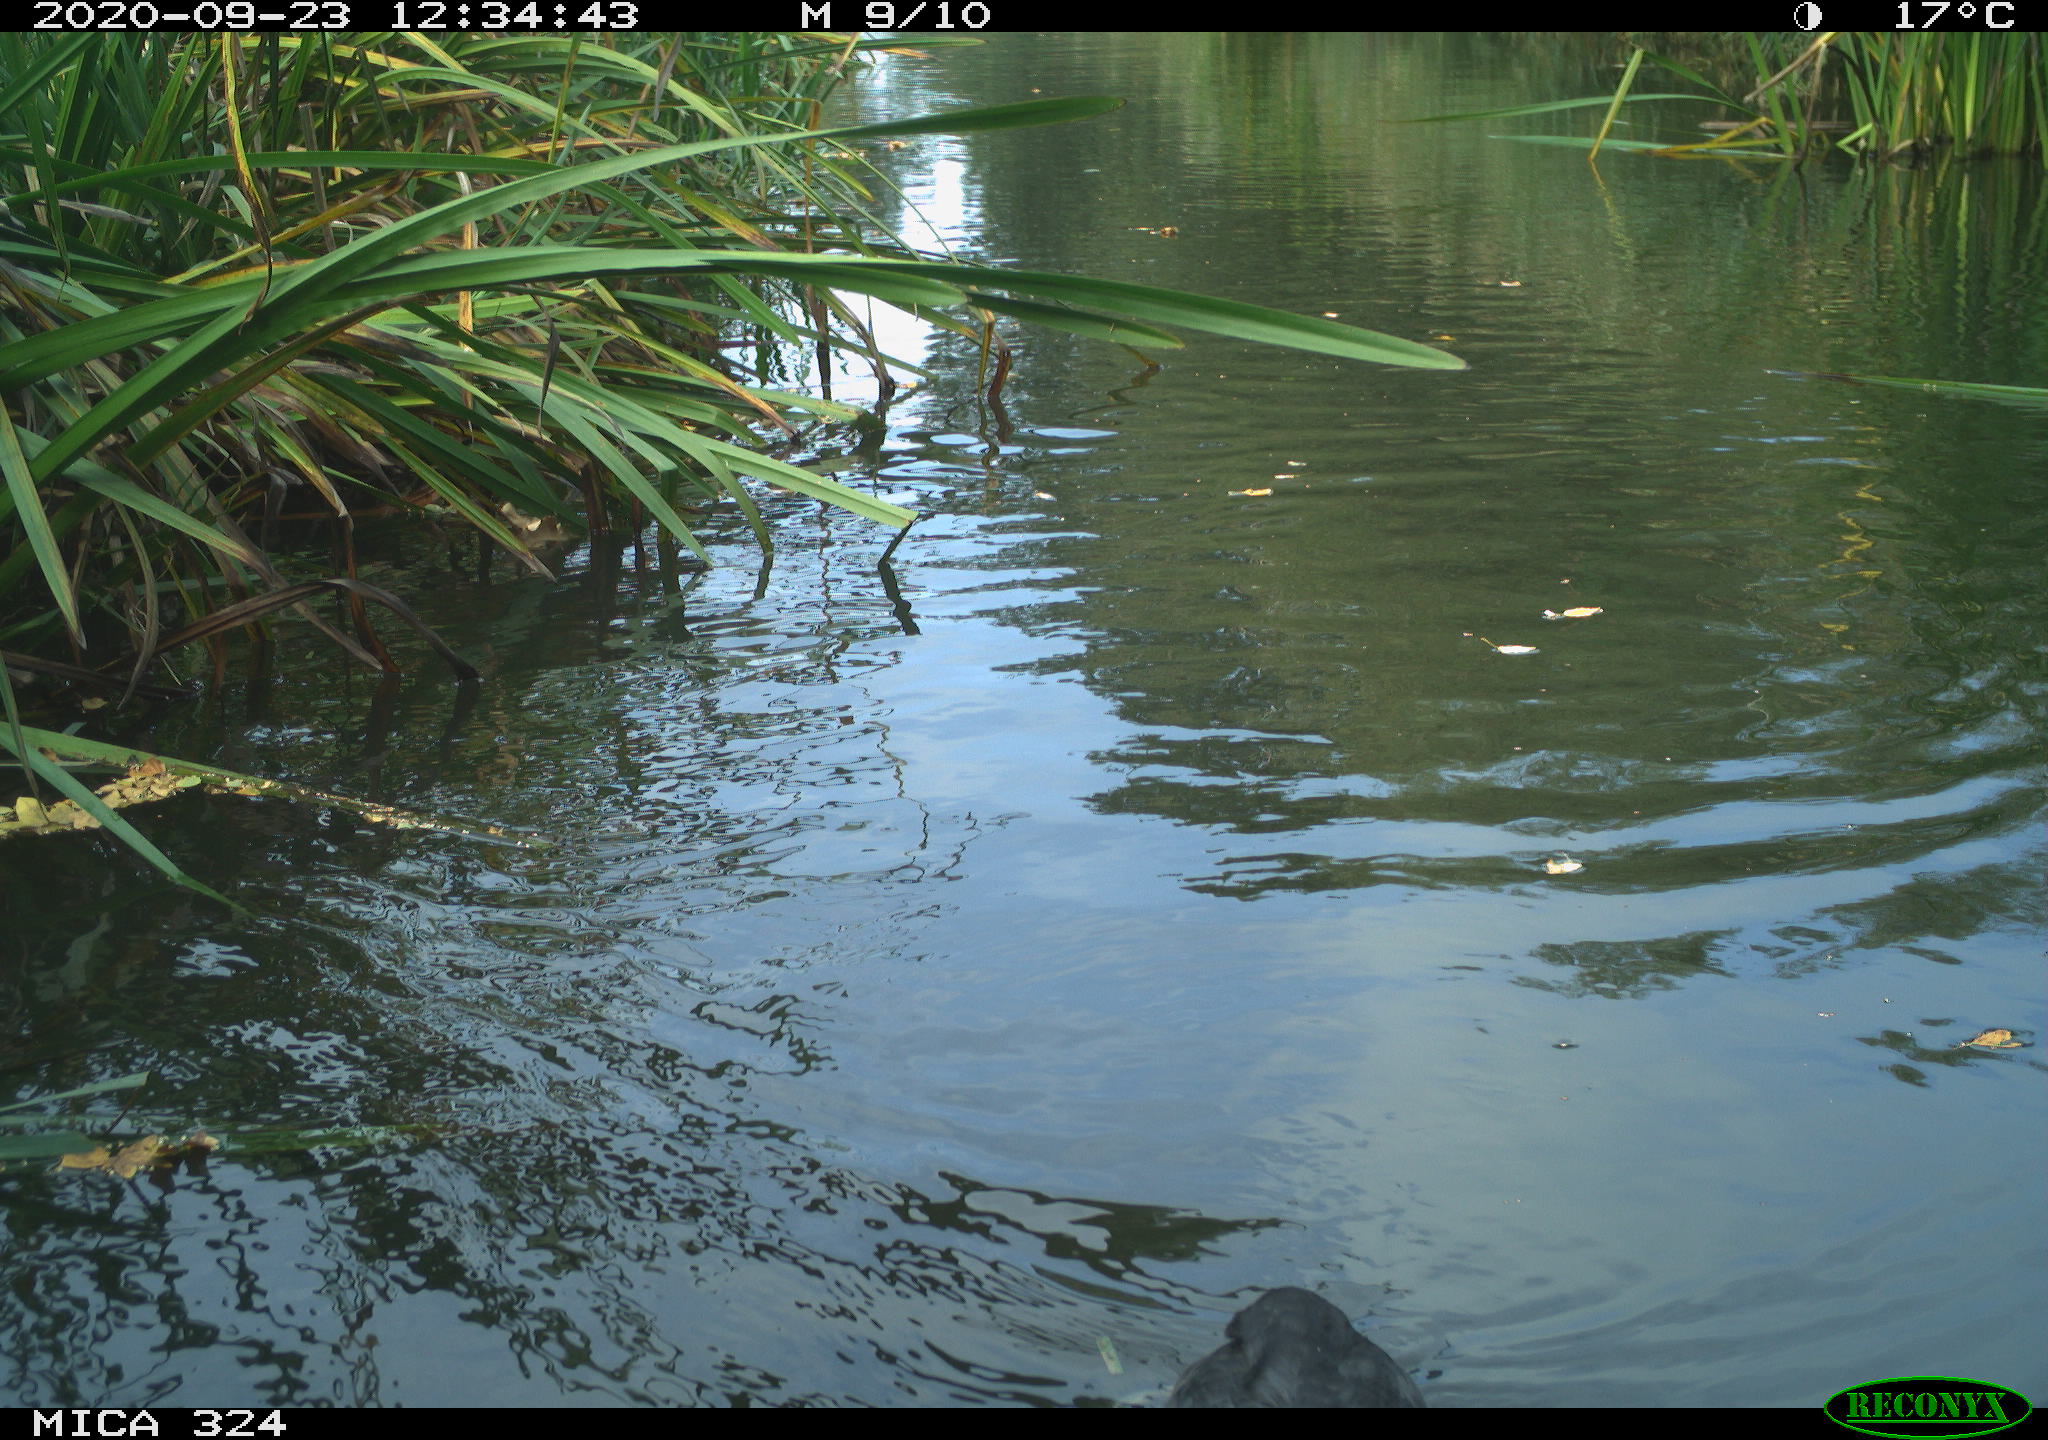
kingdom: Animalia
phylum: Chordata
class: Aves
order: Gruiformes
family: Rallidae
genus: Fulica
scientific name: Fulica atra
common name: Eurasian coot
